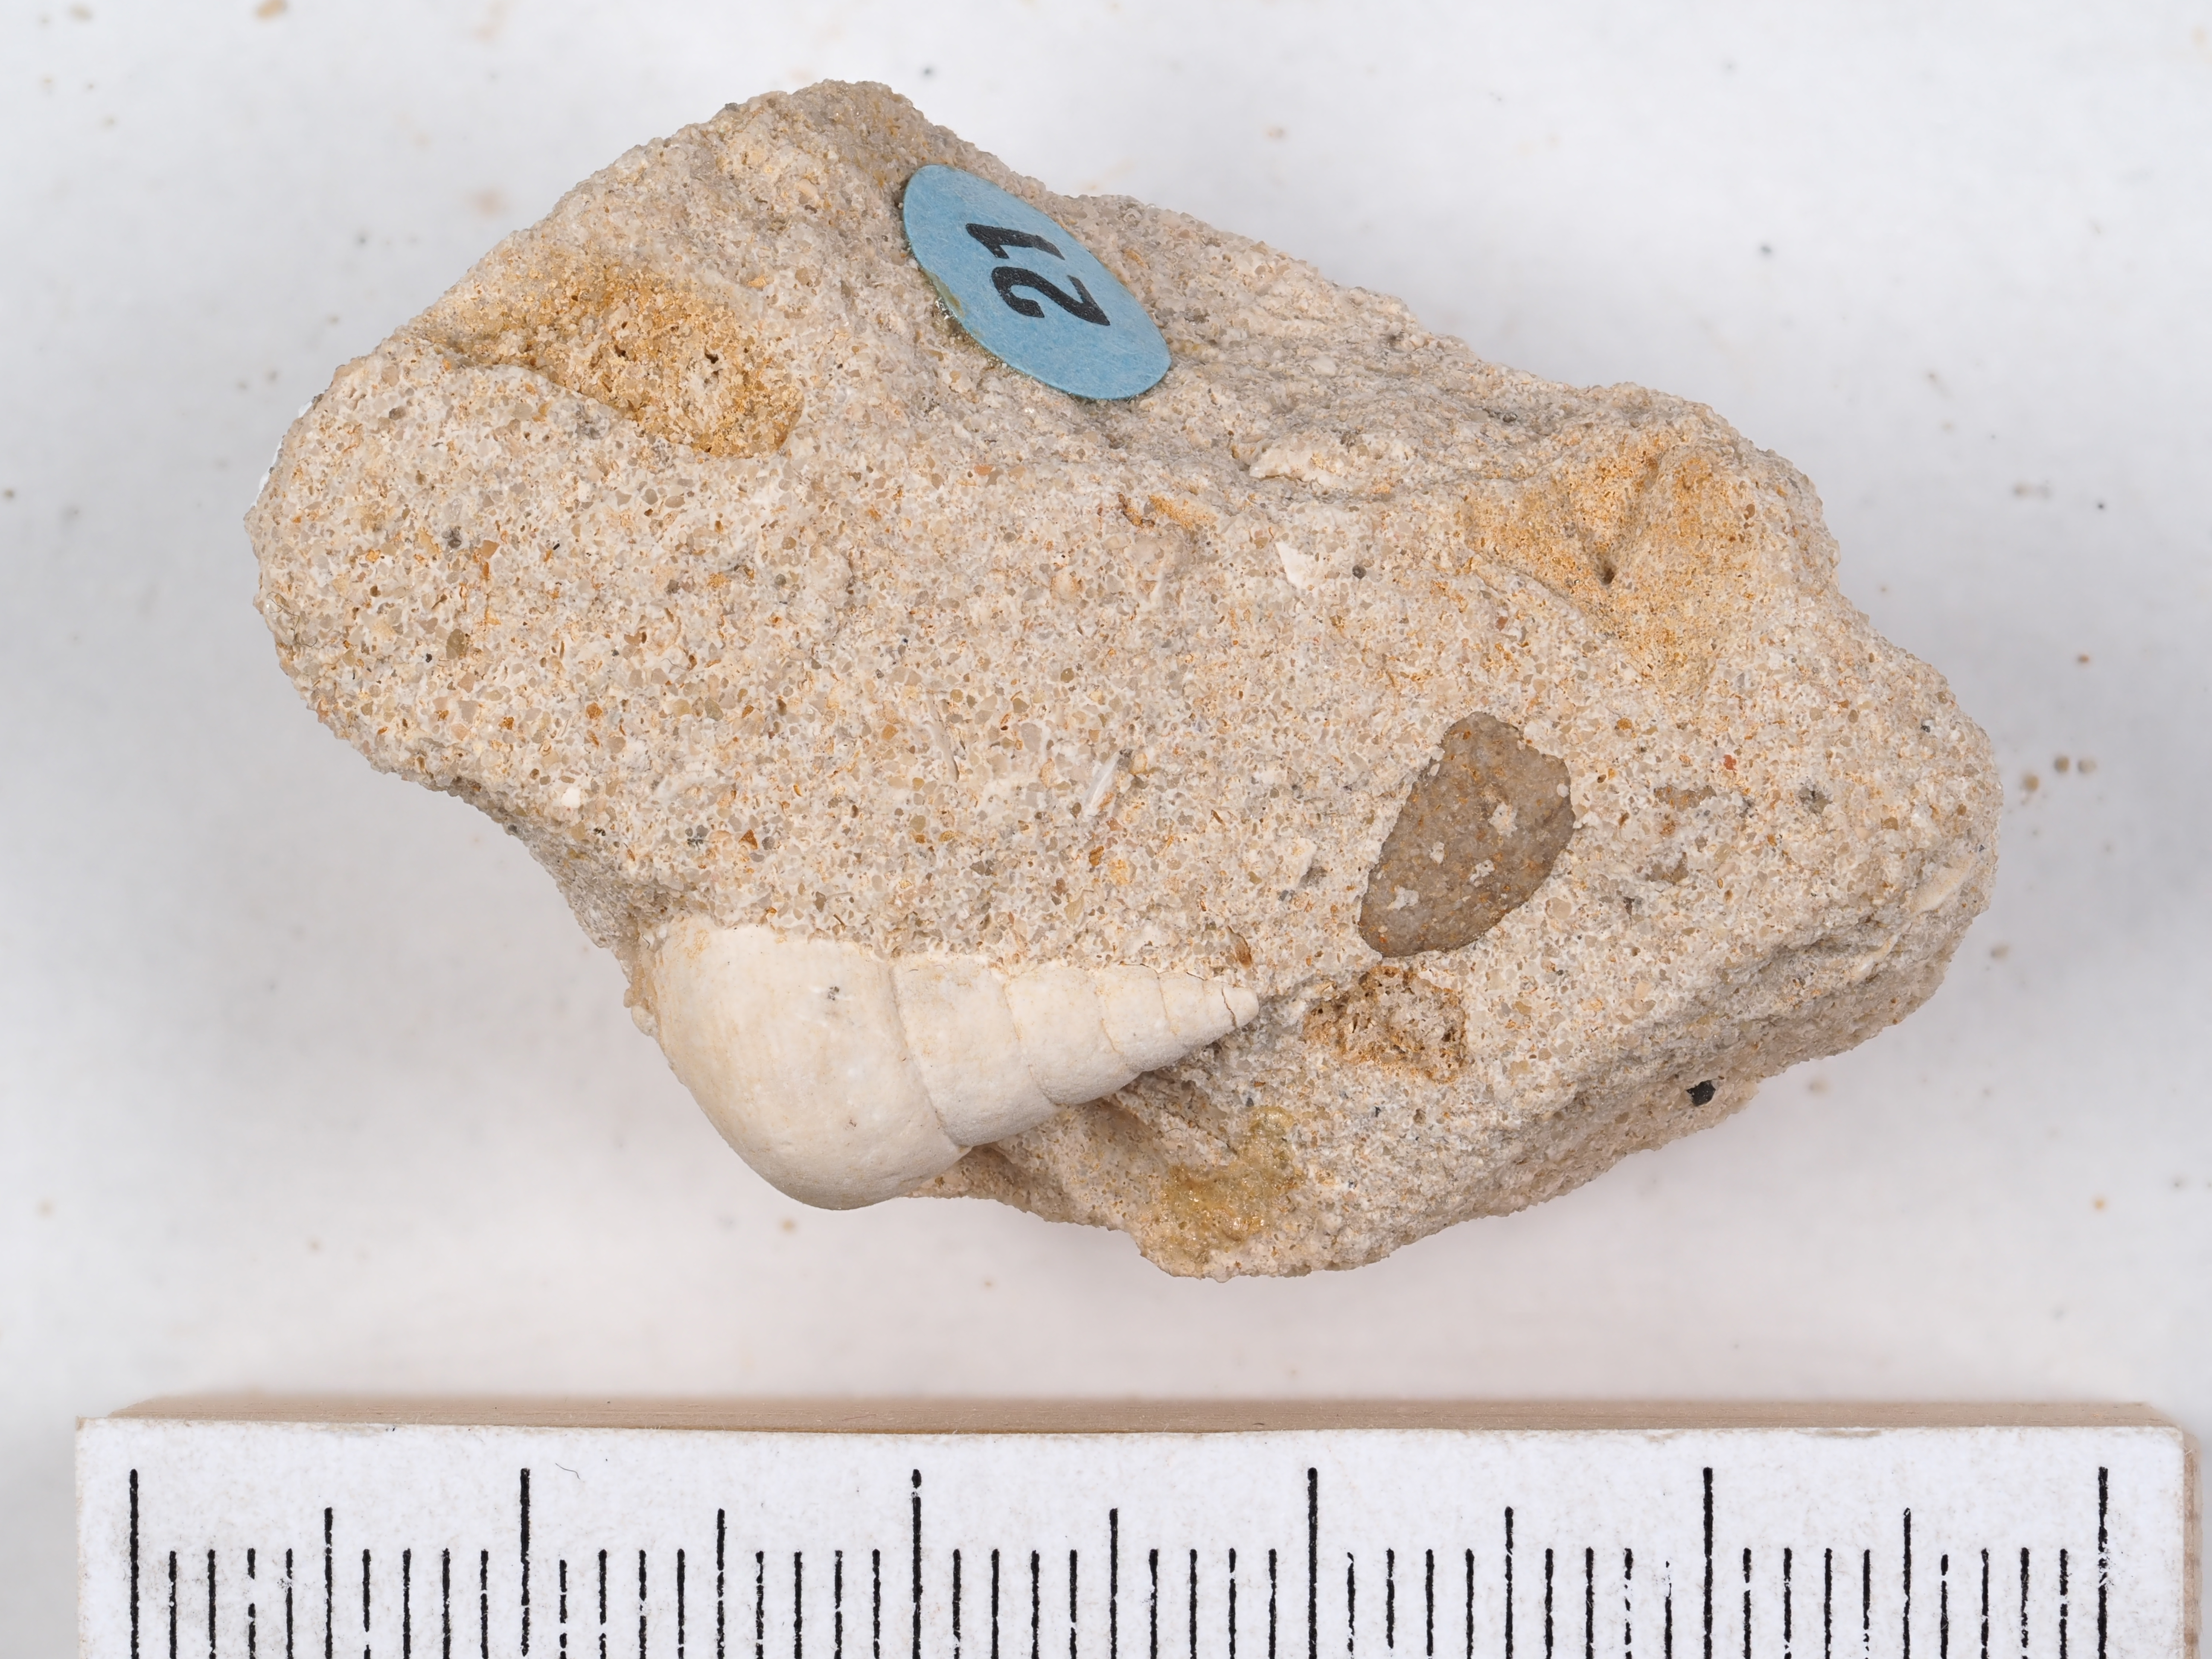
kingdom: Animalia
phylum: Mollusca
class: Gastropoda
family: Coelostylinidae
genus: Coelostylina
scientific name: Coelostylina Cerithium paludinare
